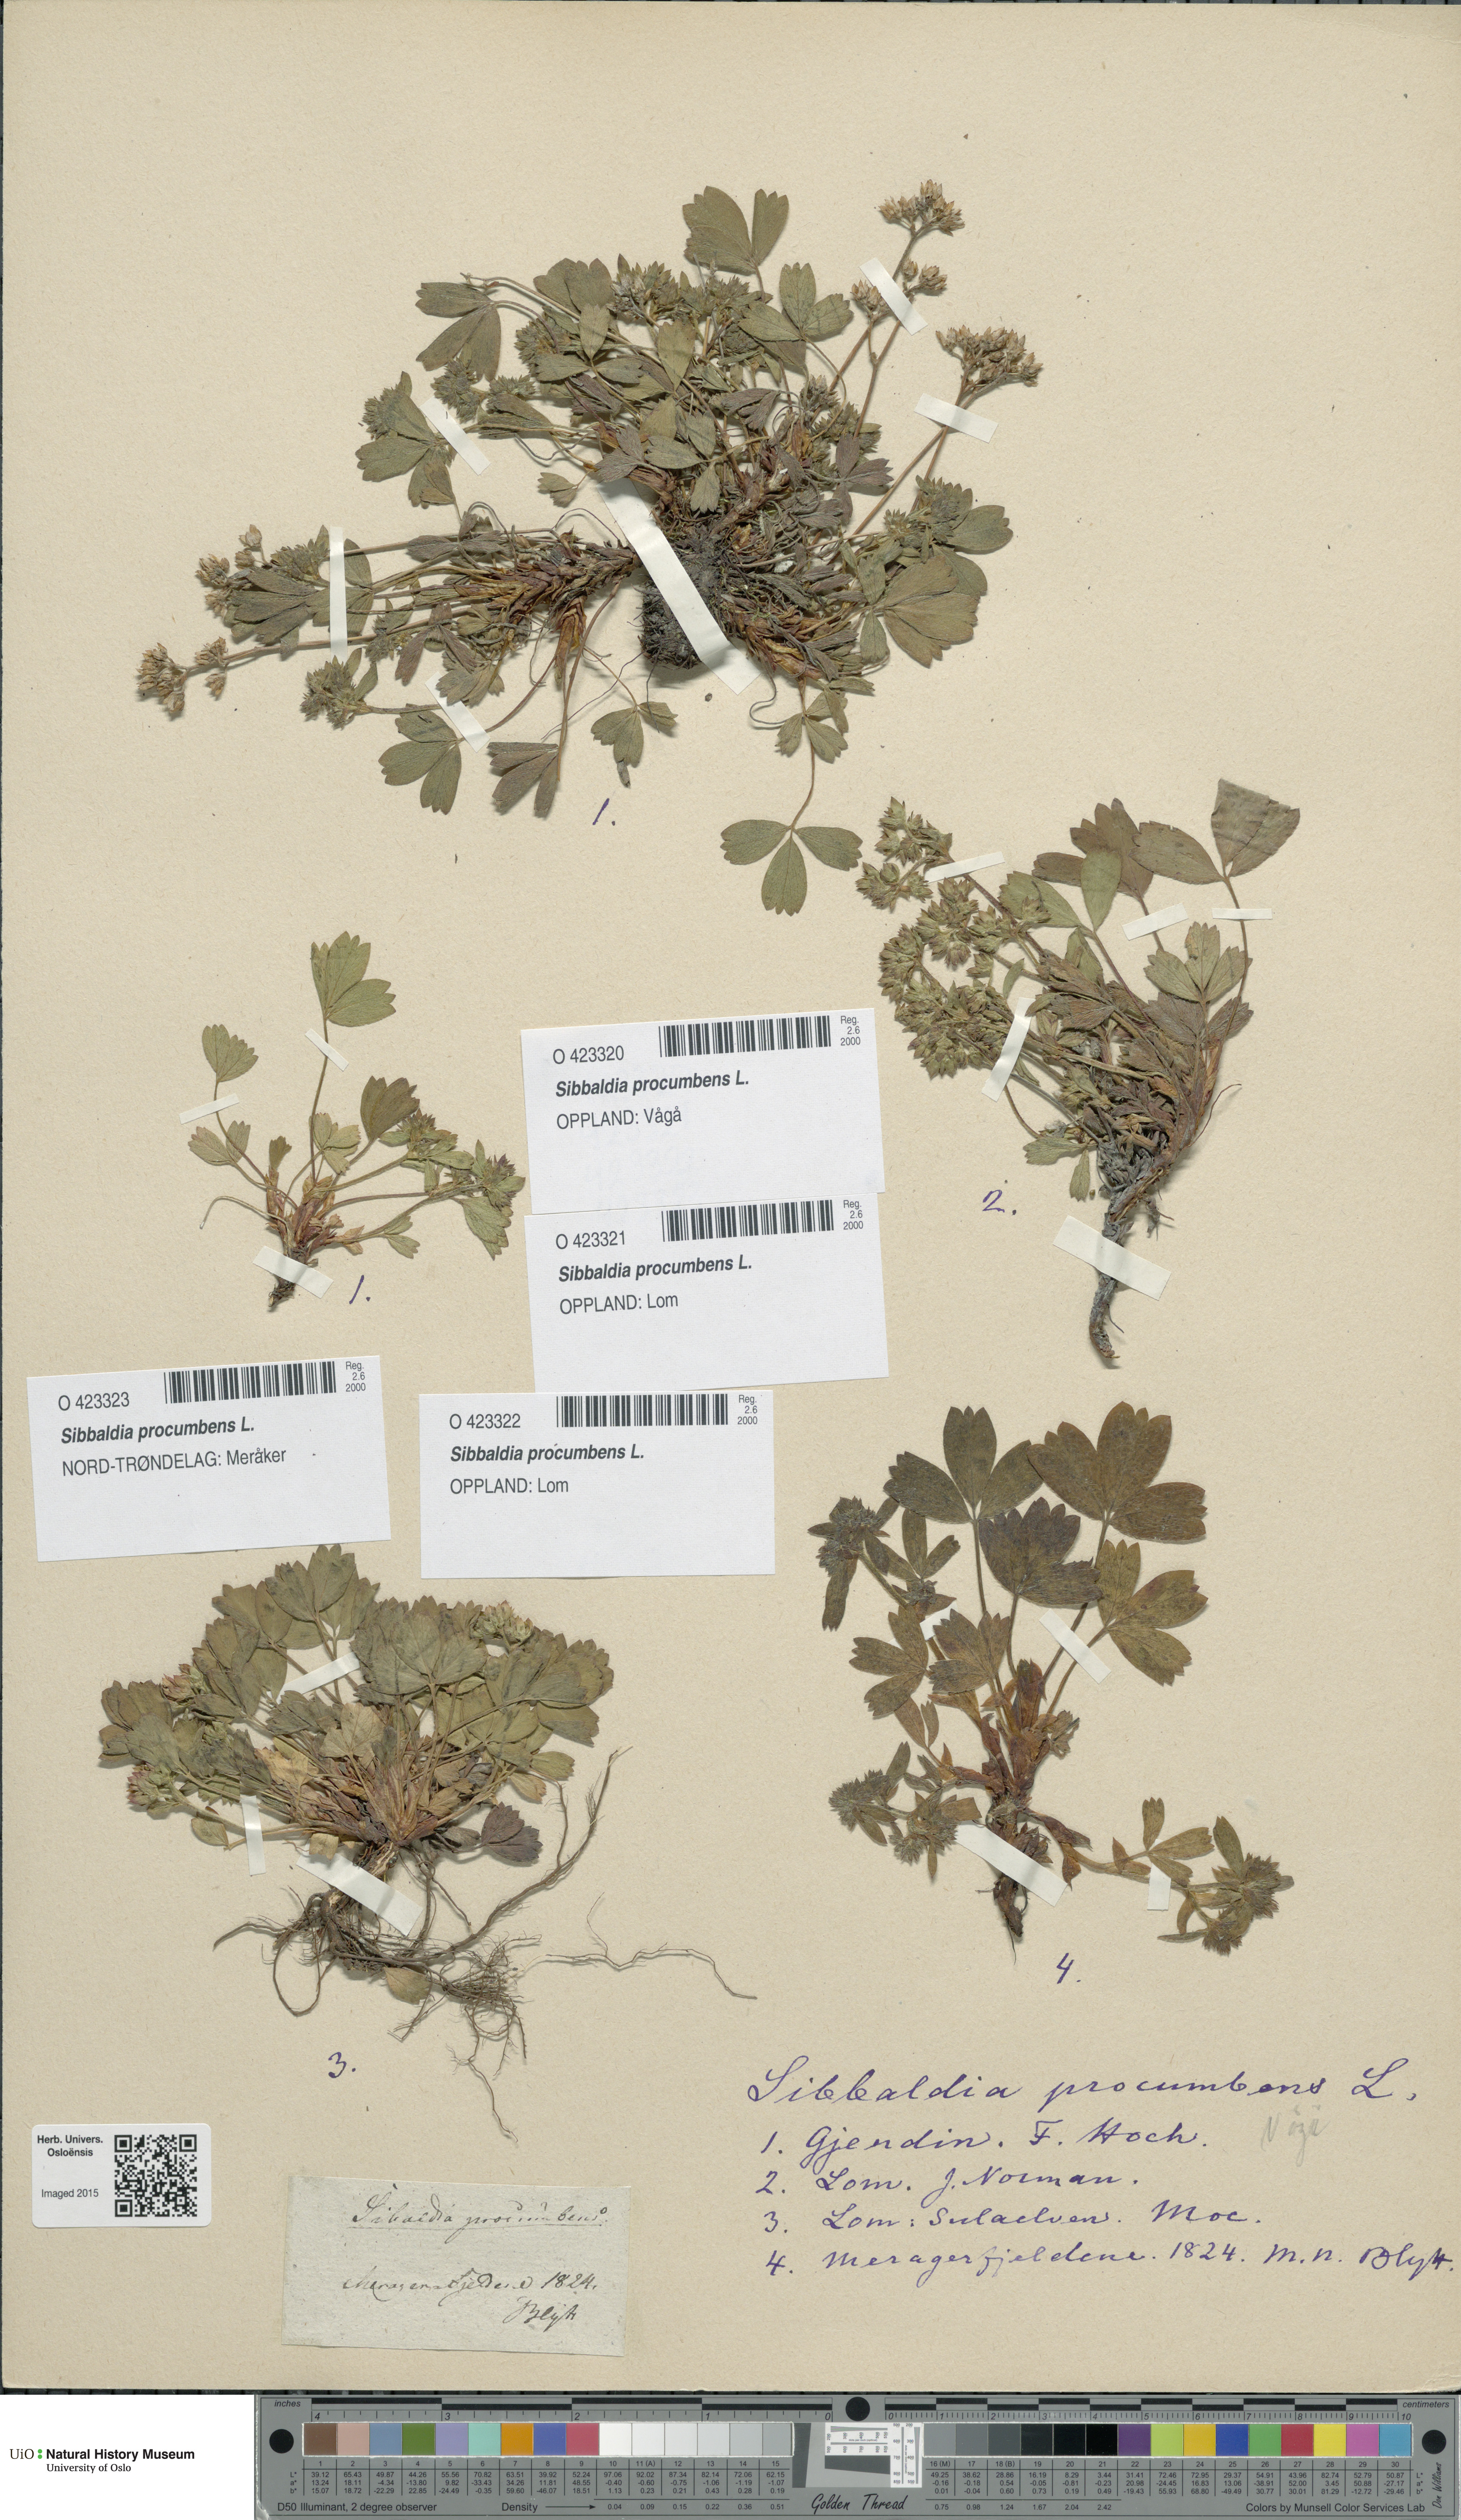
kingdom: Plantae
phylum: Tracheophyta
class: Magnoliopsida
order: Rosales
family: Rosaceae
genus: Sibbaldia
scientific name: Sibbaldia procumbens
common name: Creeping sibbaldia
